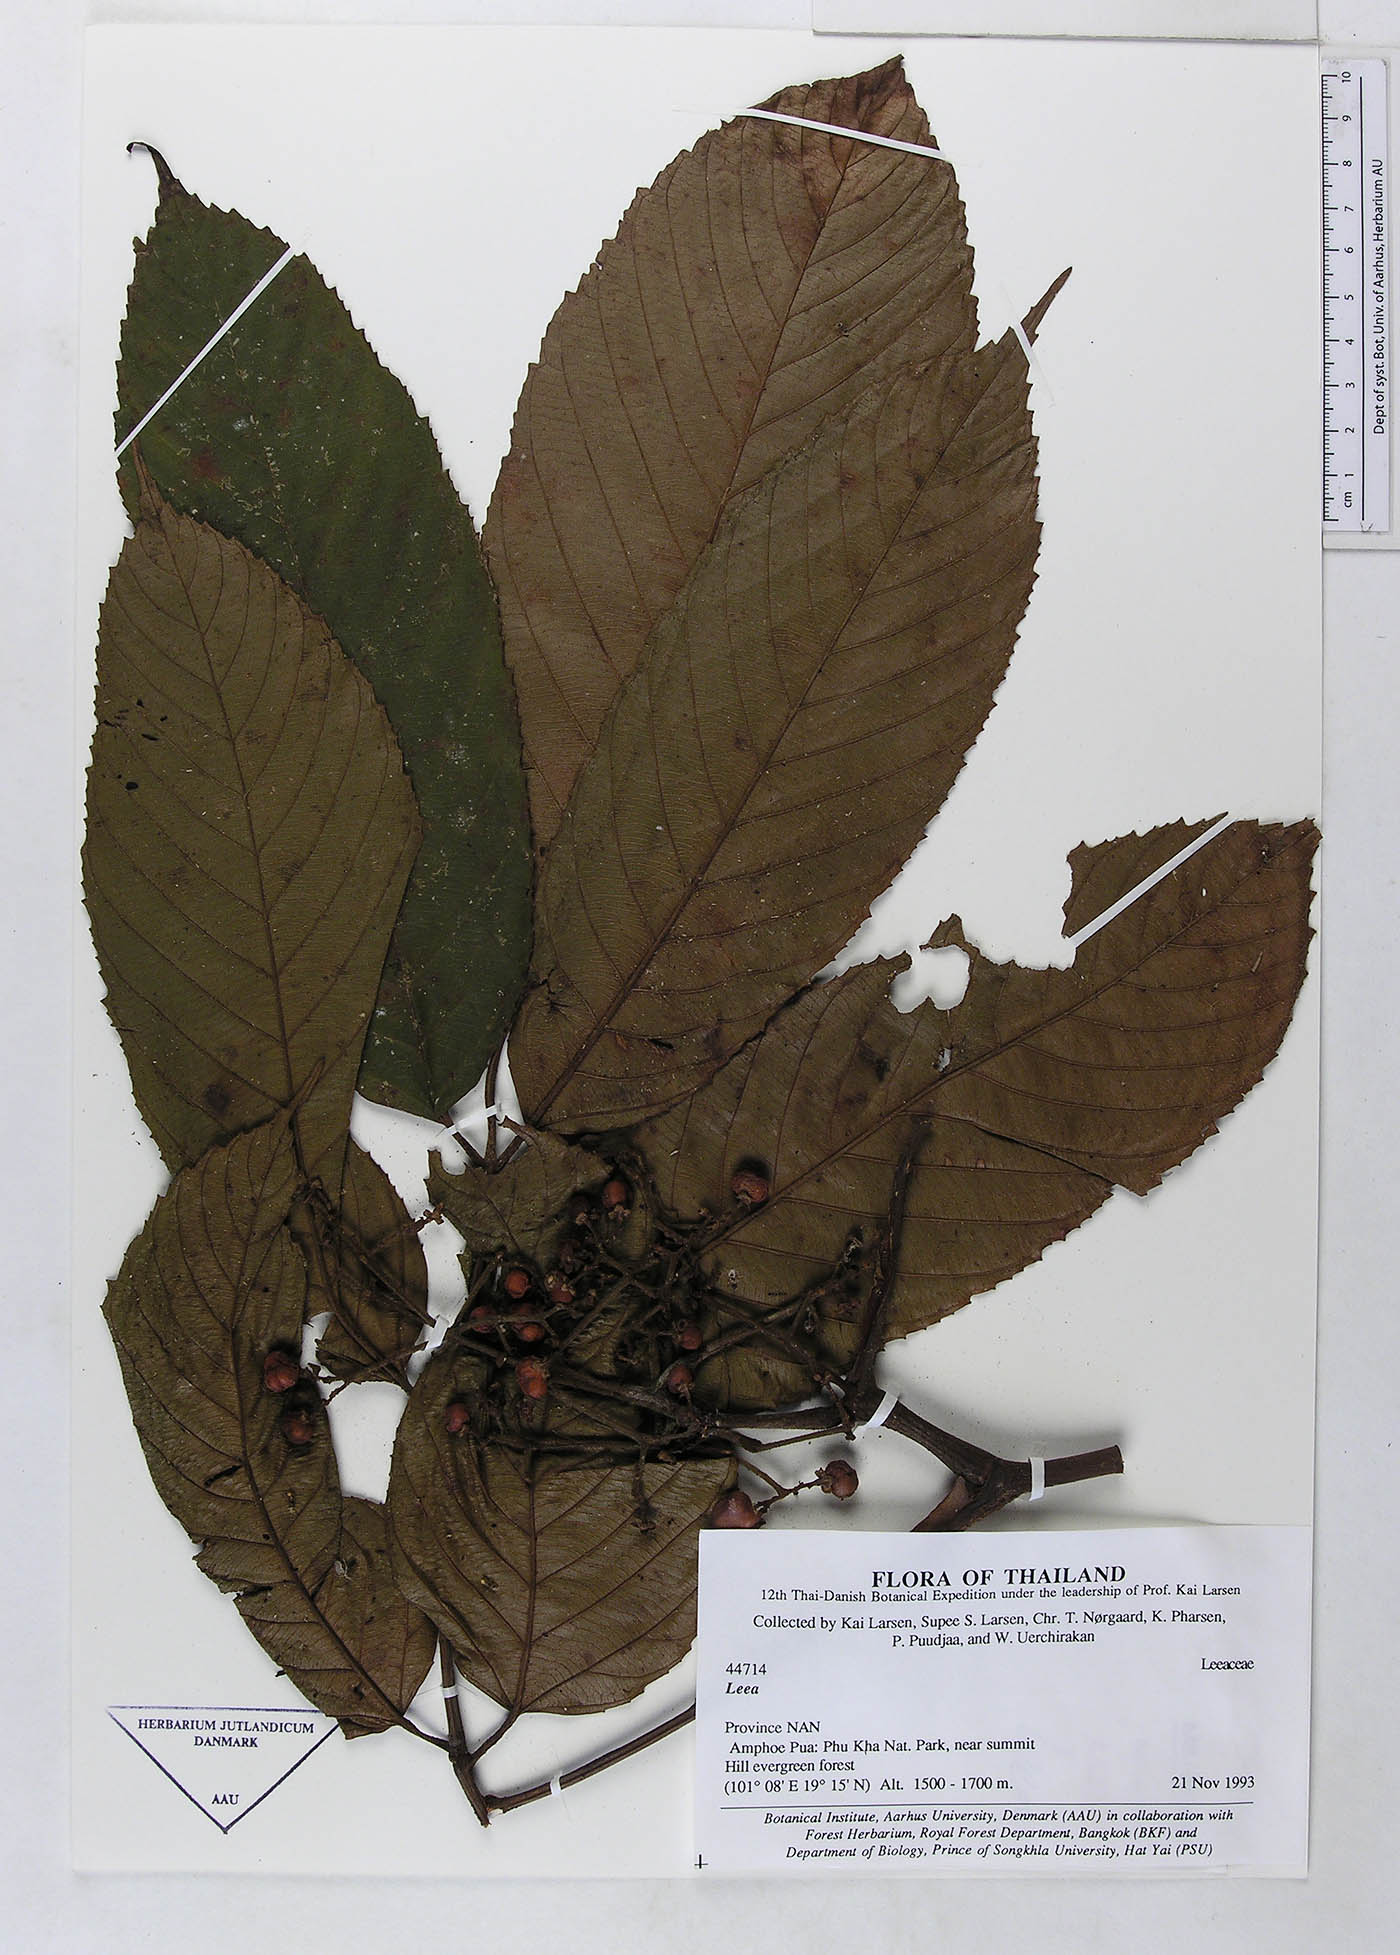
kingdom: Plantae
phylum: Tracheophyta
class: Magnoliopsida
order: Vitales
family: Vitaceae
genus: Leea
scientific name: Leea macrophylla
